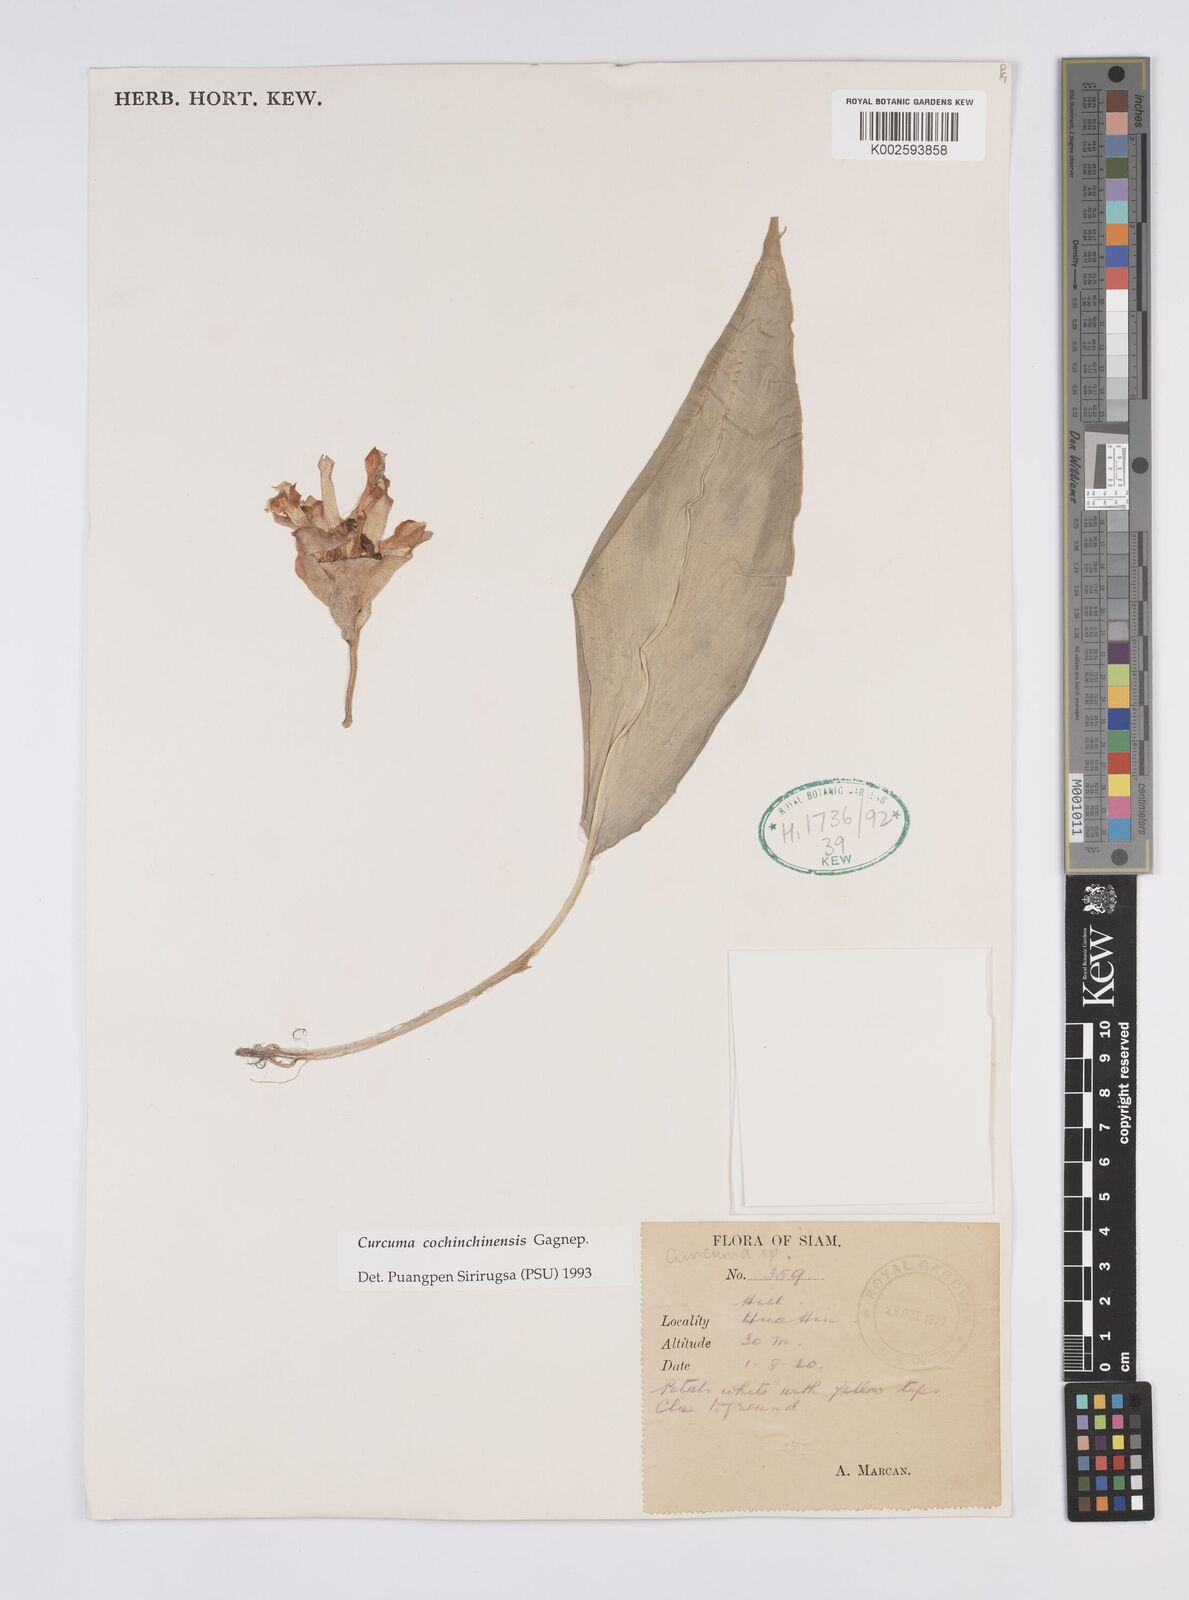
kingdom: Plantae
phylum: Tracheophyta
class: Liliopsida
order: Zingiberales
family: Zingiberaceae
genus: Curcuma
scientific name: Curcuma cochinchinensis
